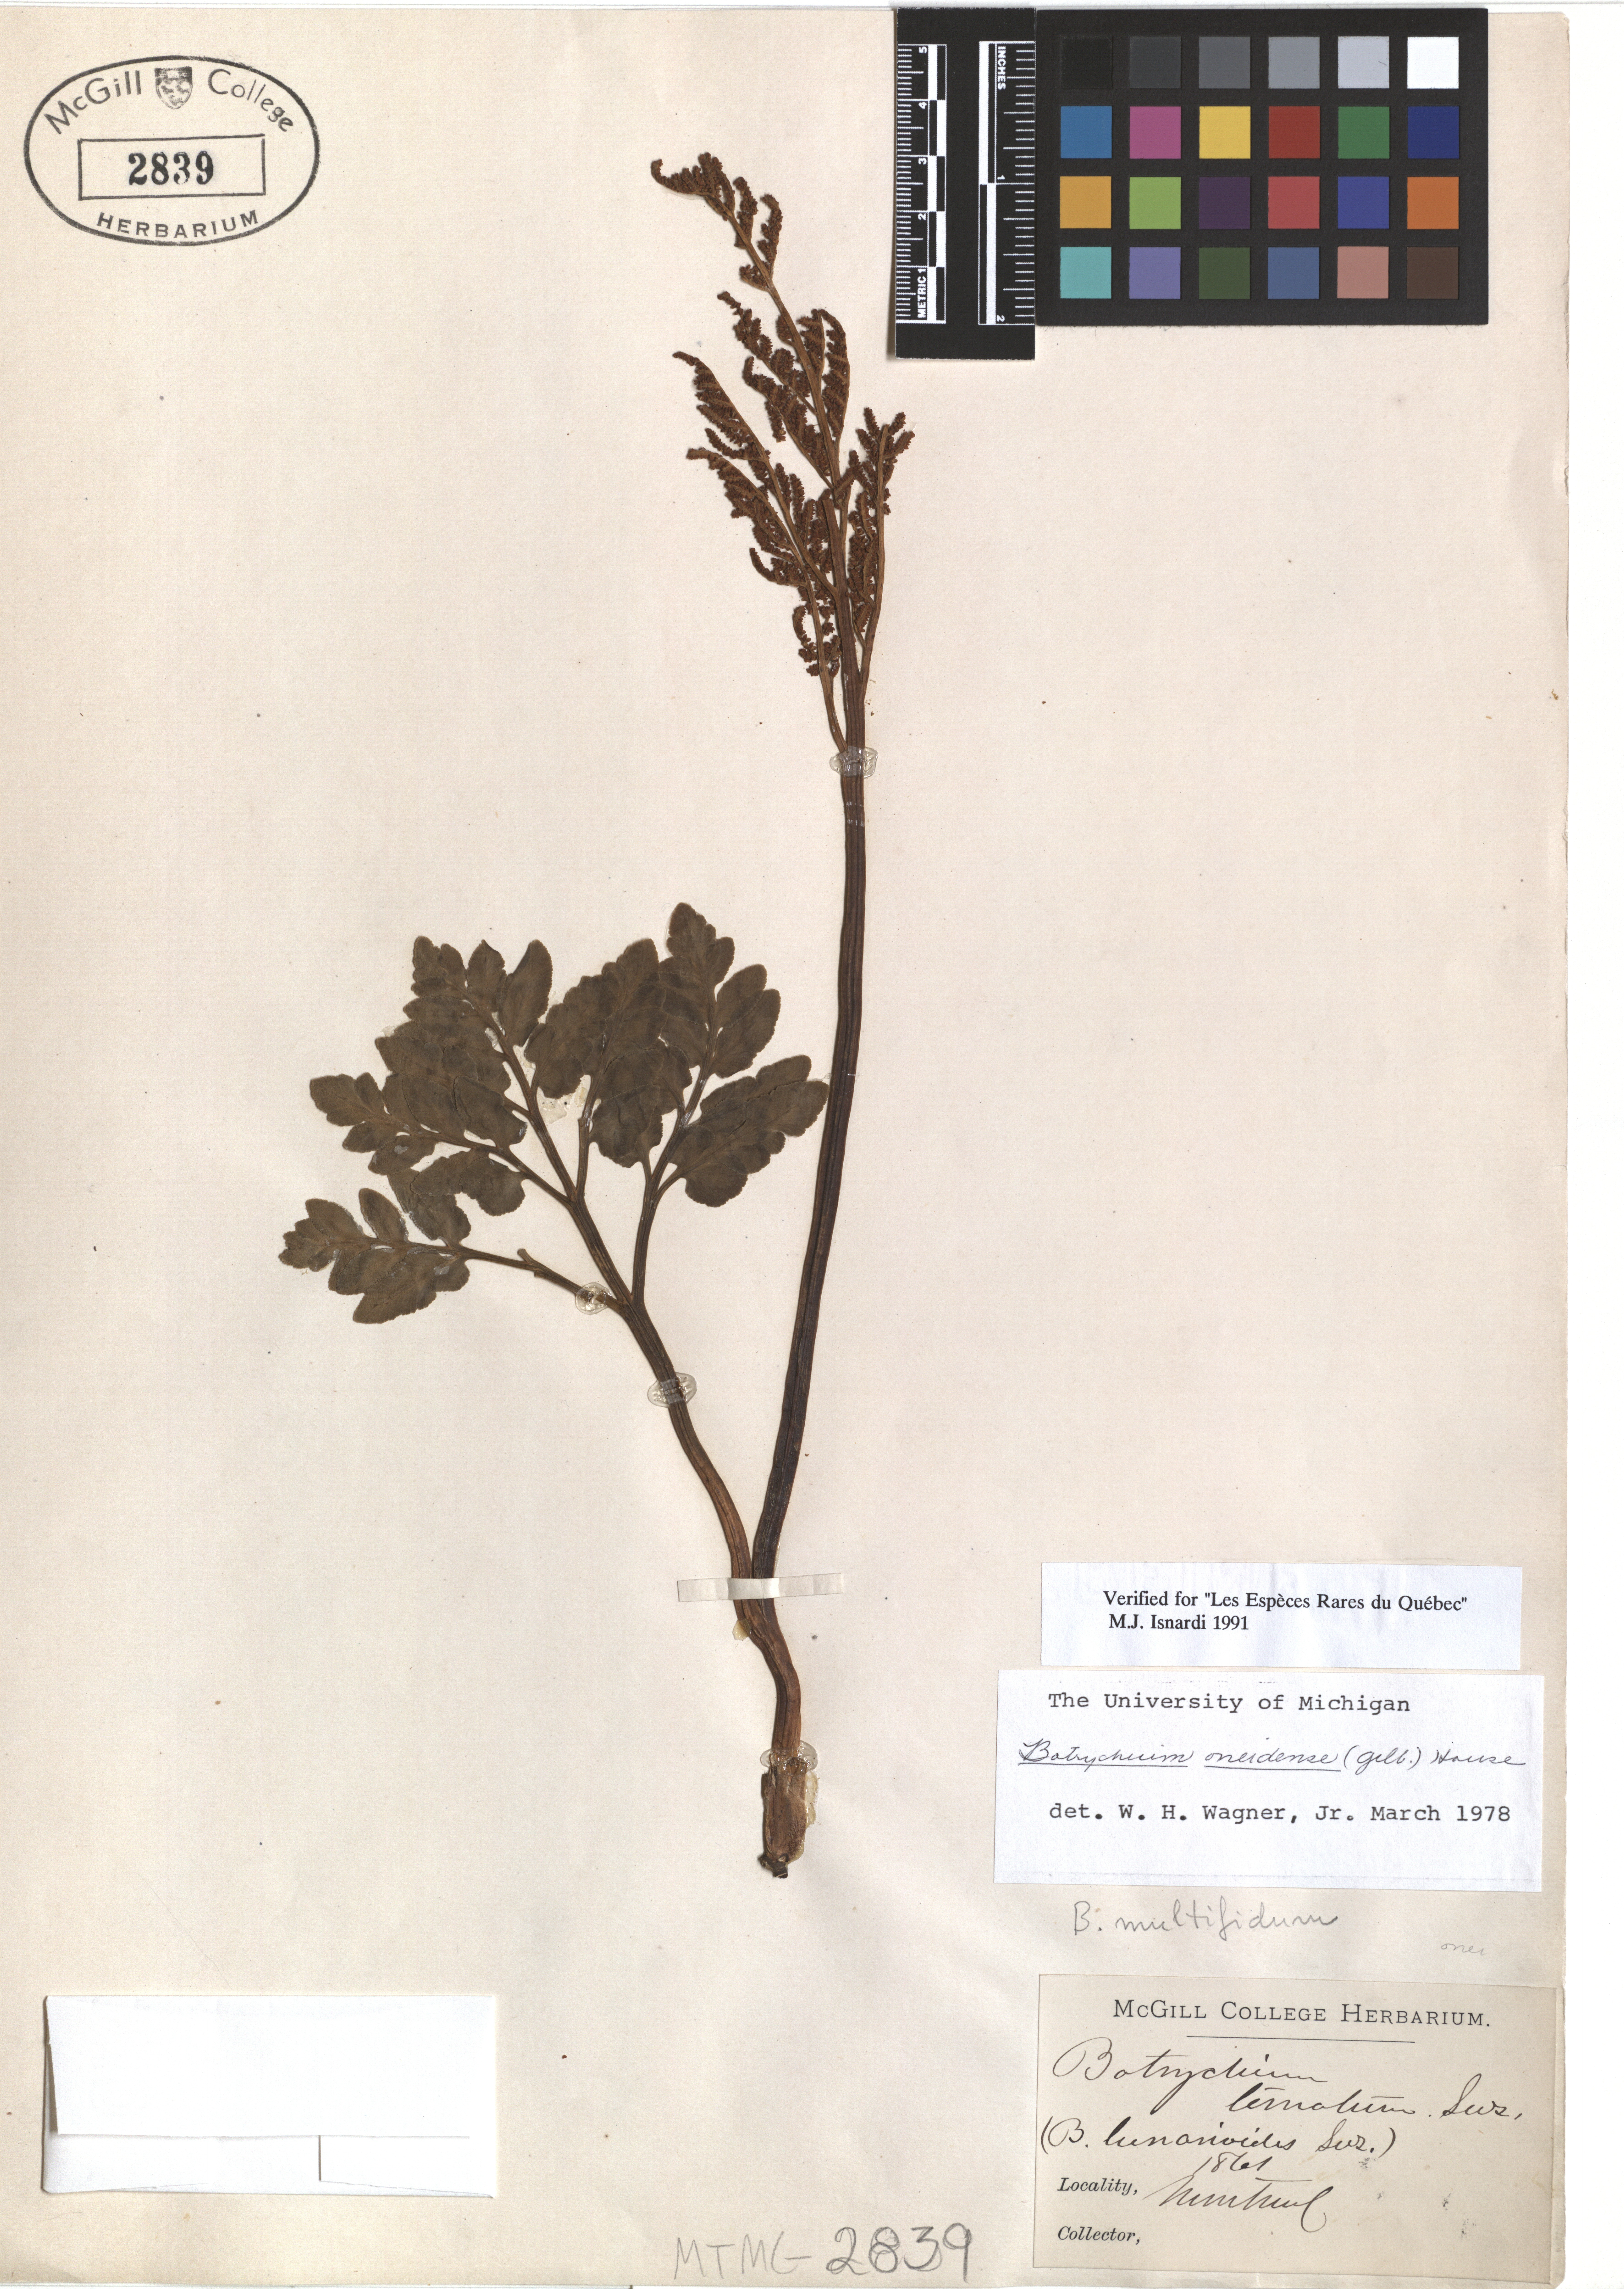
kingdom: Plantae
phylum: Tracheophyta
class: Polypodiopsida
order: Ophioglossales
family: Ophioglossaceae
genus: Sceptridium
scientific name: Sceptridium oneidense
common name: Blunt-lobed grapefern
